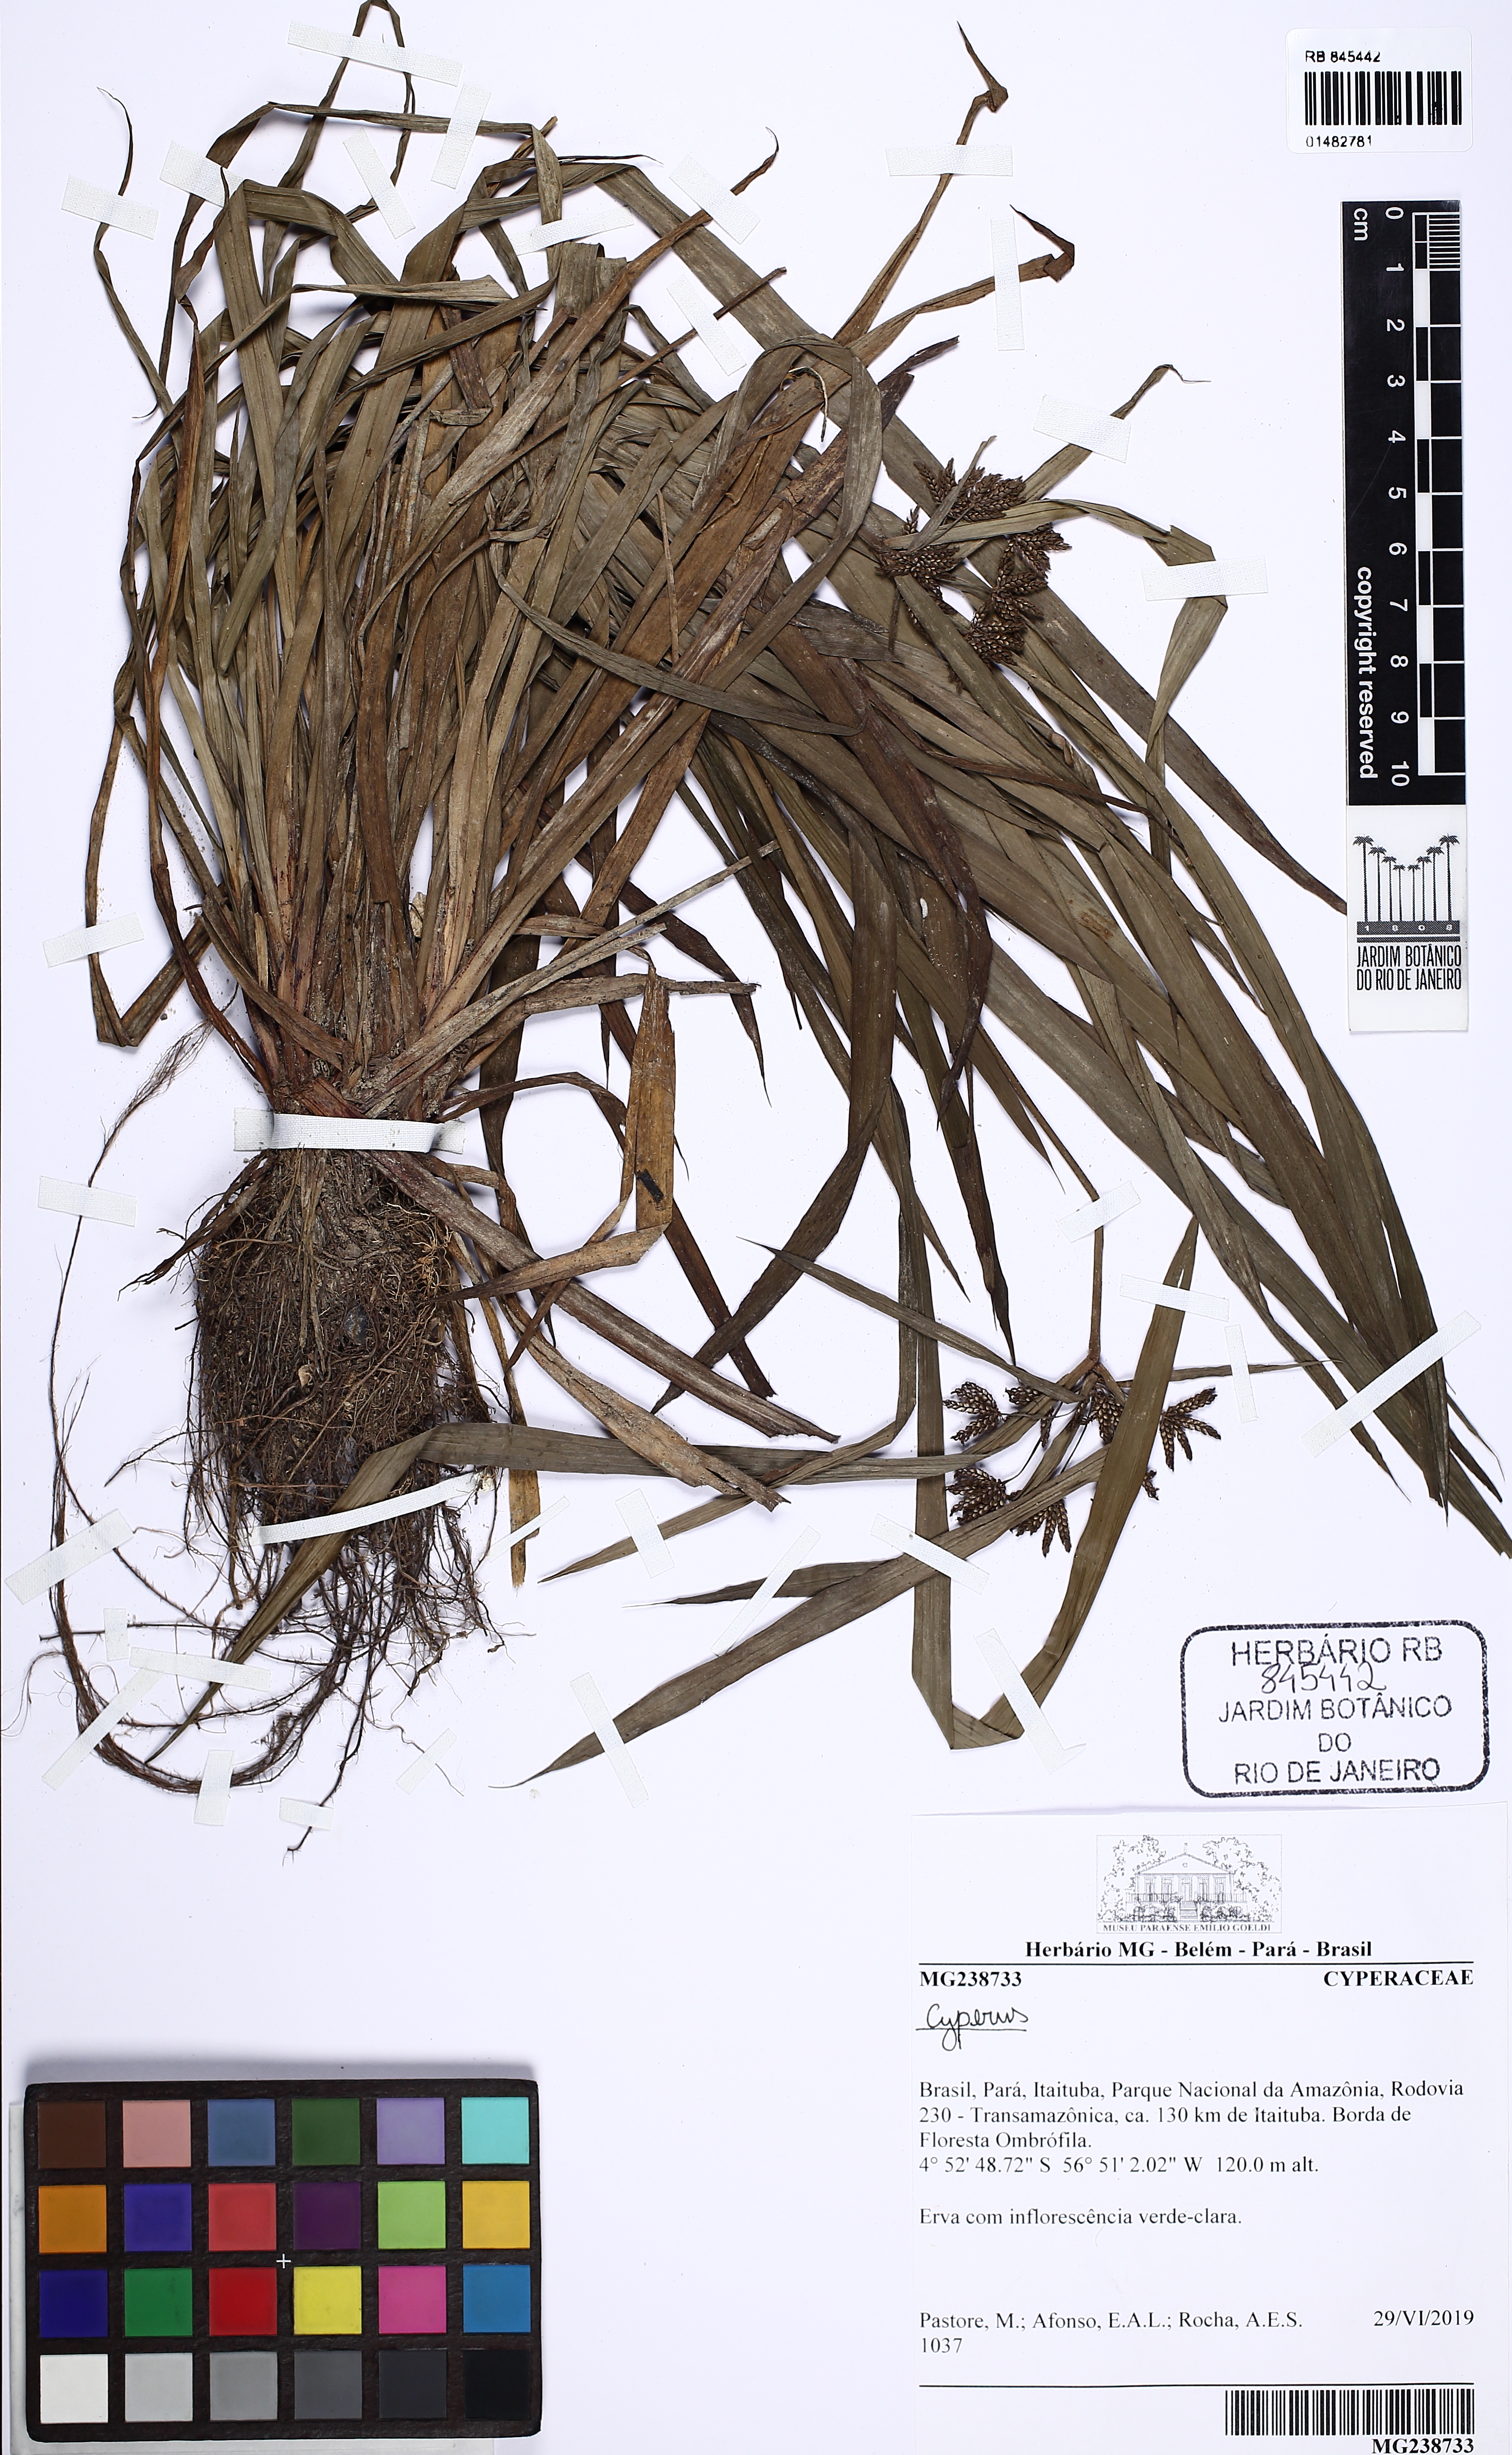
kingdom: Plantae
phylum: Tracheophyta
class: Liliopsida
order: Poales
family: Cyperaceae
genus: Cyperus
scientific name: Cyperus
